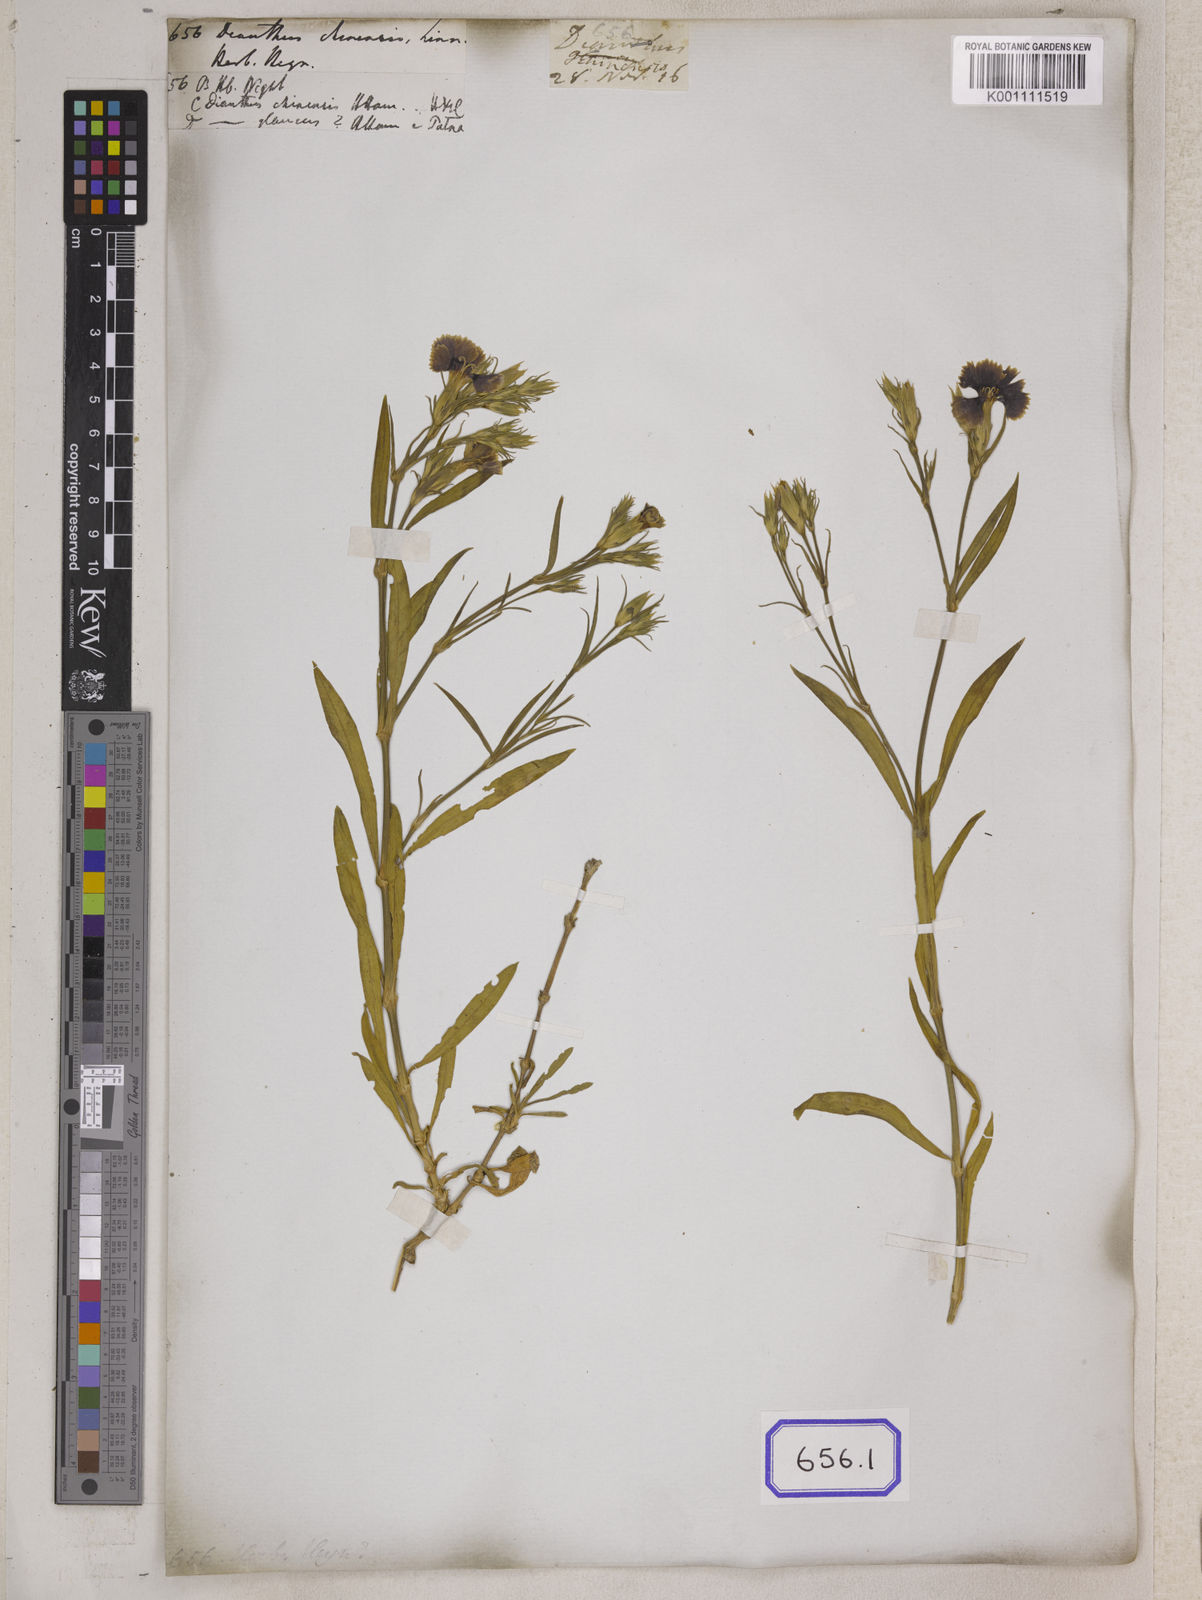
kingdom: Plantae
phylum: Tracheophyta
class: Magnoliopsida
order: Caryophyllales
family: Caryophyllaceae
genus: Dianthus
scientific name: Dianthus chinensis
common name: Rainbow pink
